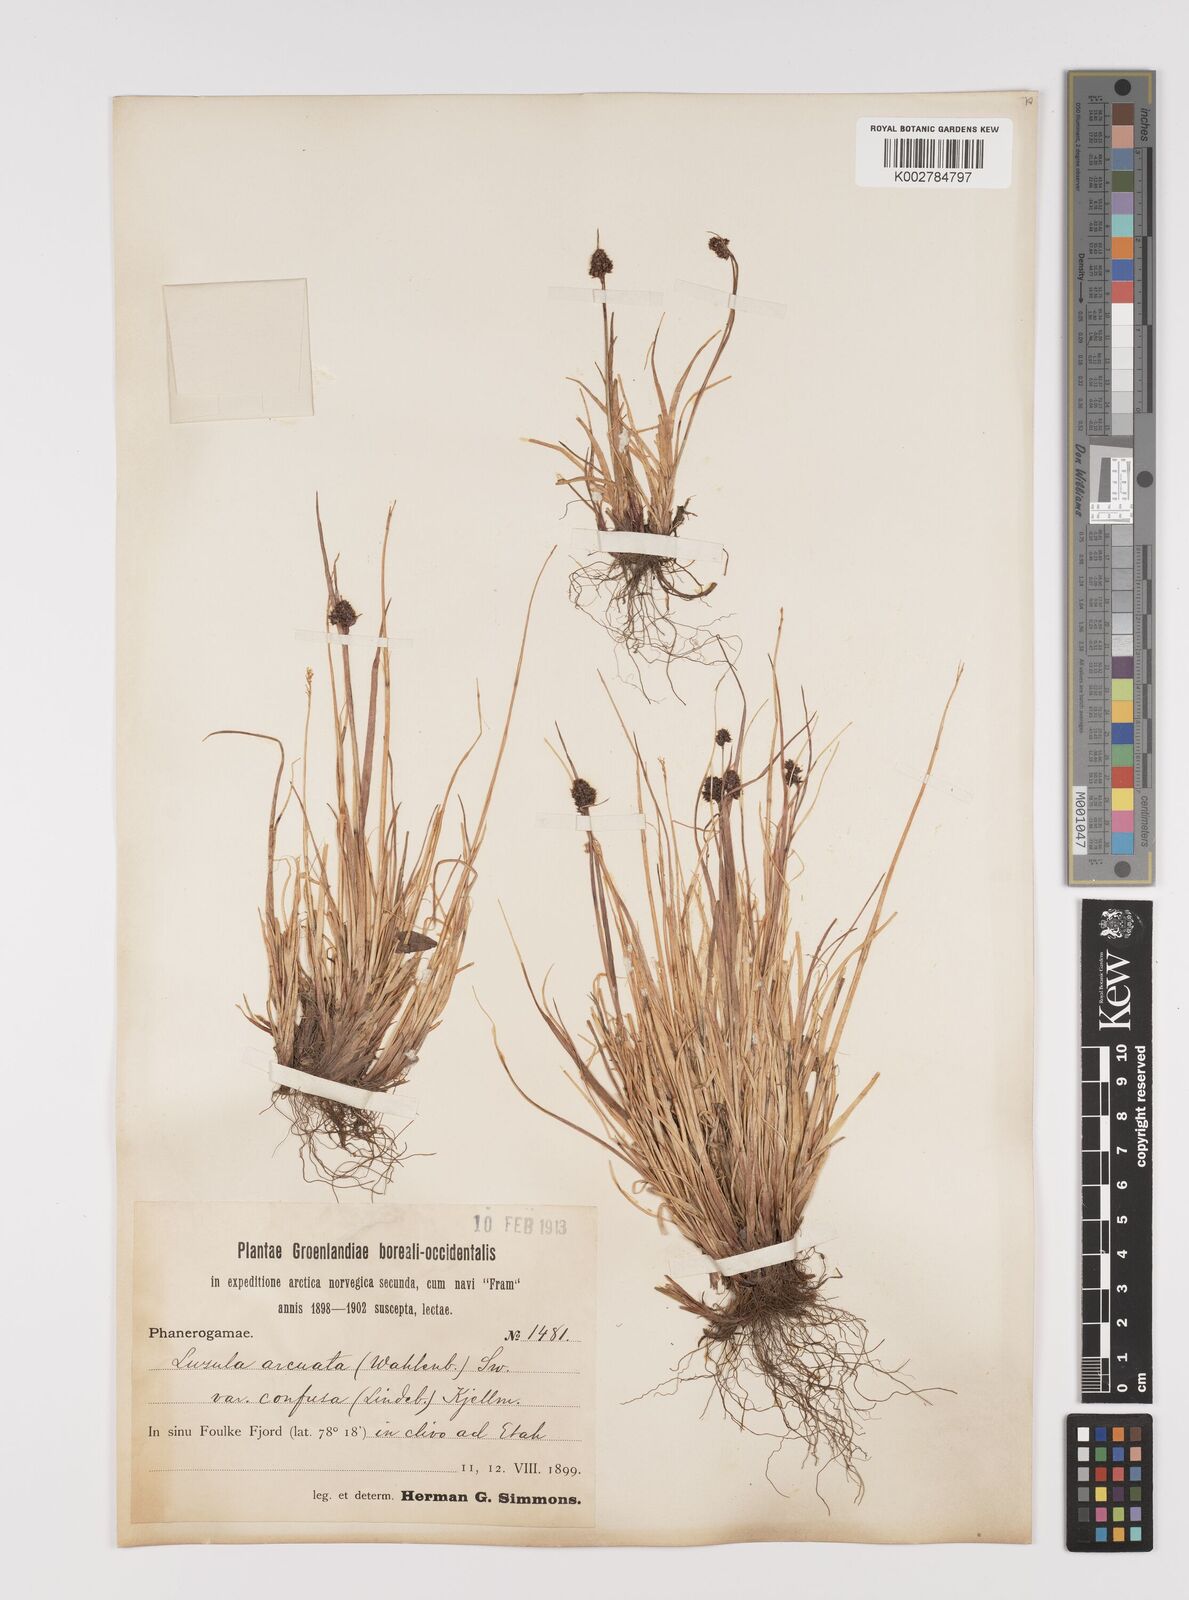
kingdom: Plantae
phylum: Tracheophyta
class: Liliopsida
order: Poales
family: Juncaceae
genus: Luzula
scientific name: Luzula confusa
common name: Northern wood rush
